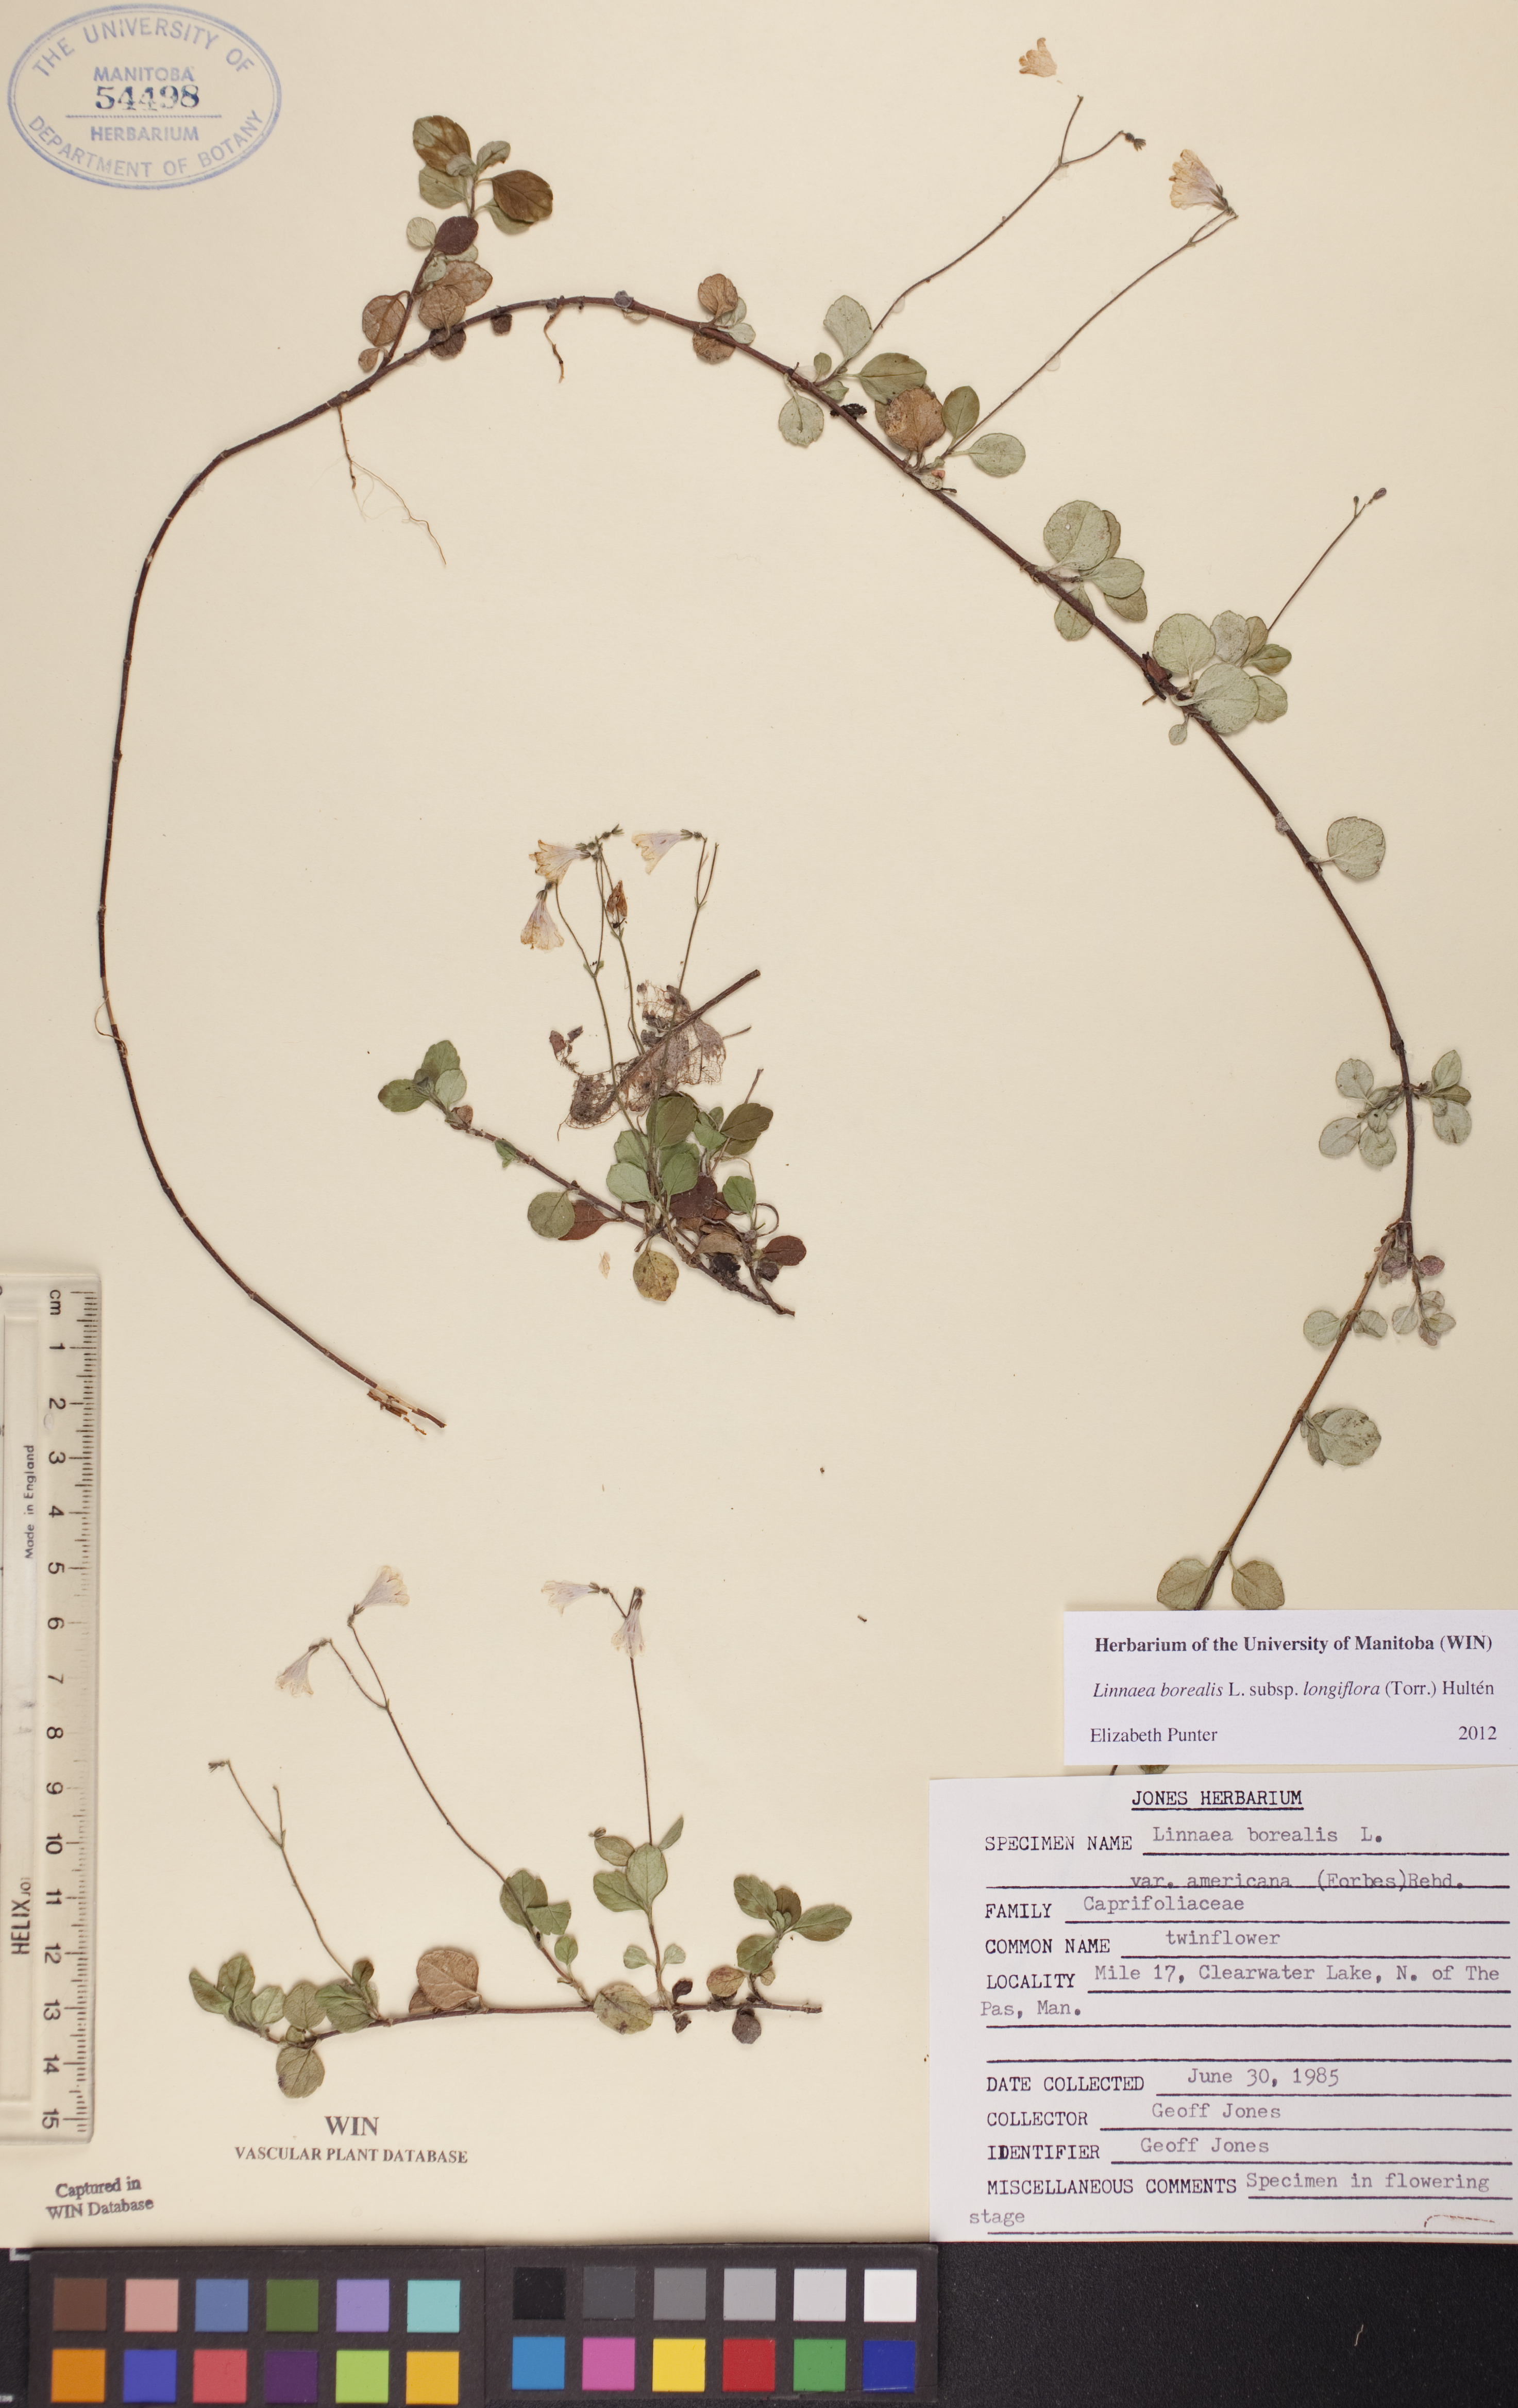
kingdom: Plantae
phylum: Tracheophyta
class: Magnoliopsida
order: Dipsacales
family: Caprifoliaceae
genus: Linnaea
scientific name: Linnaea borealis
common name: Twinflower
